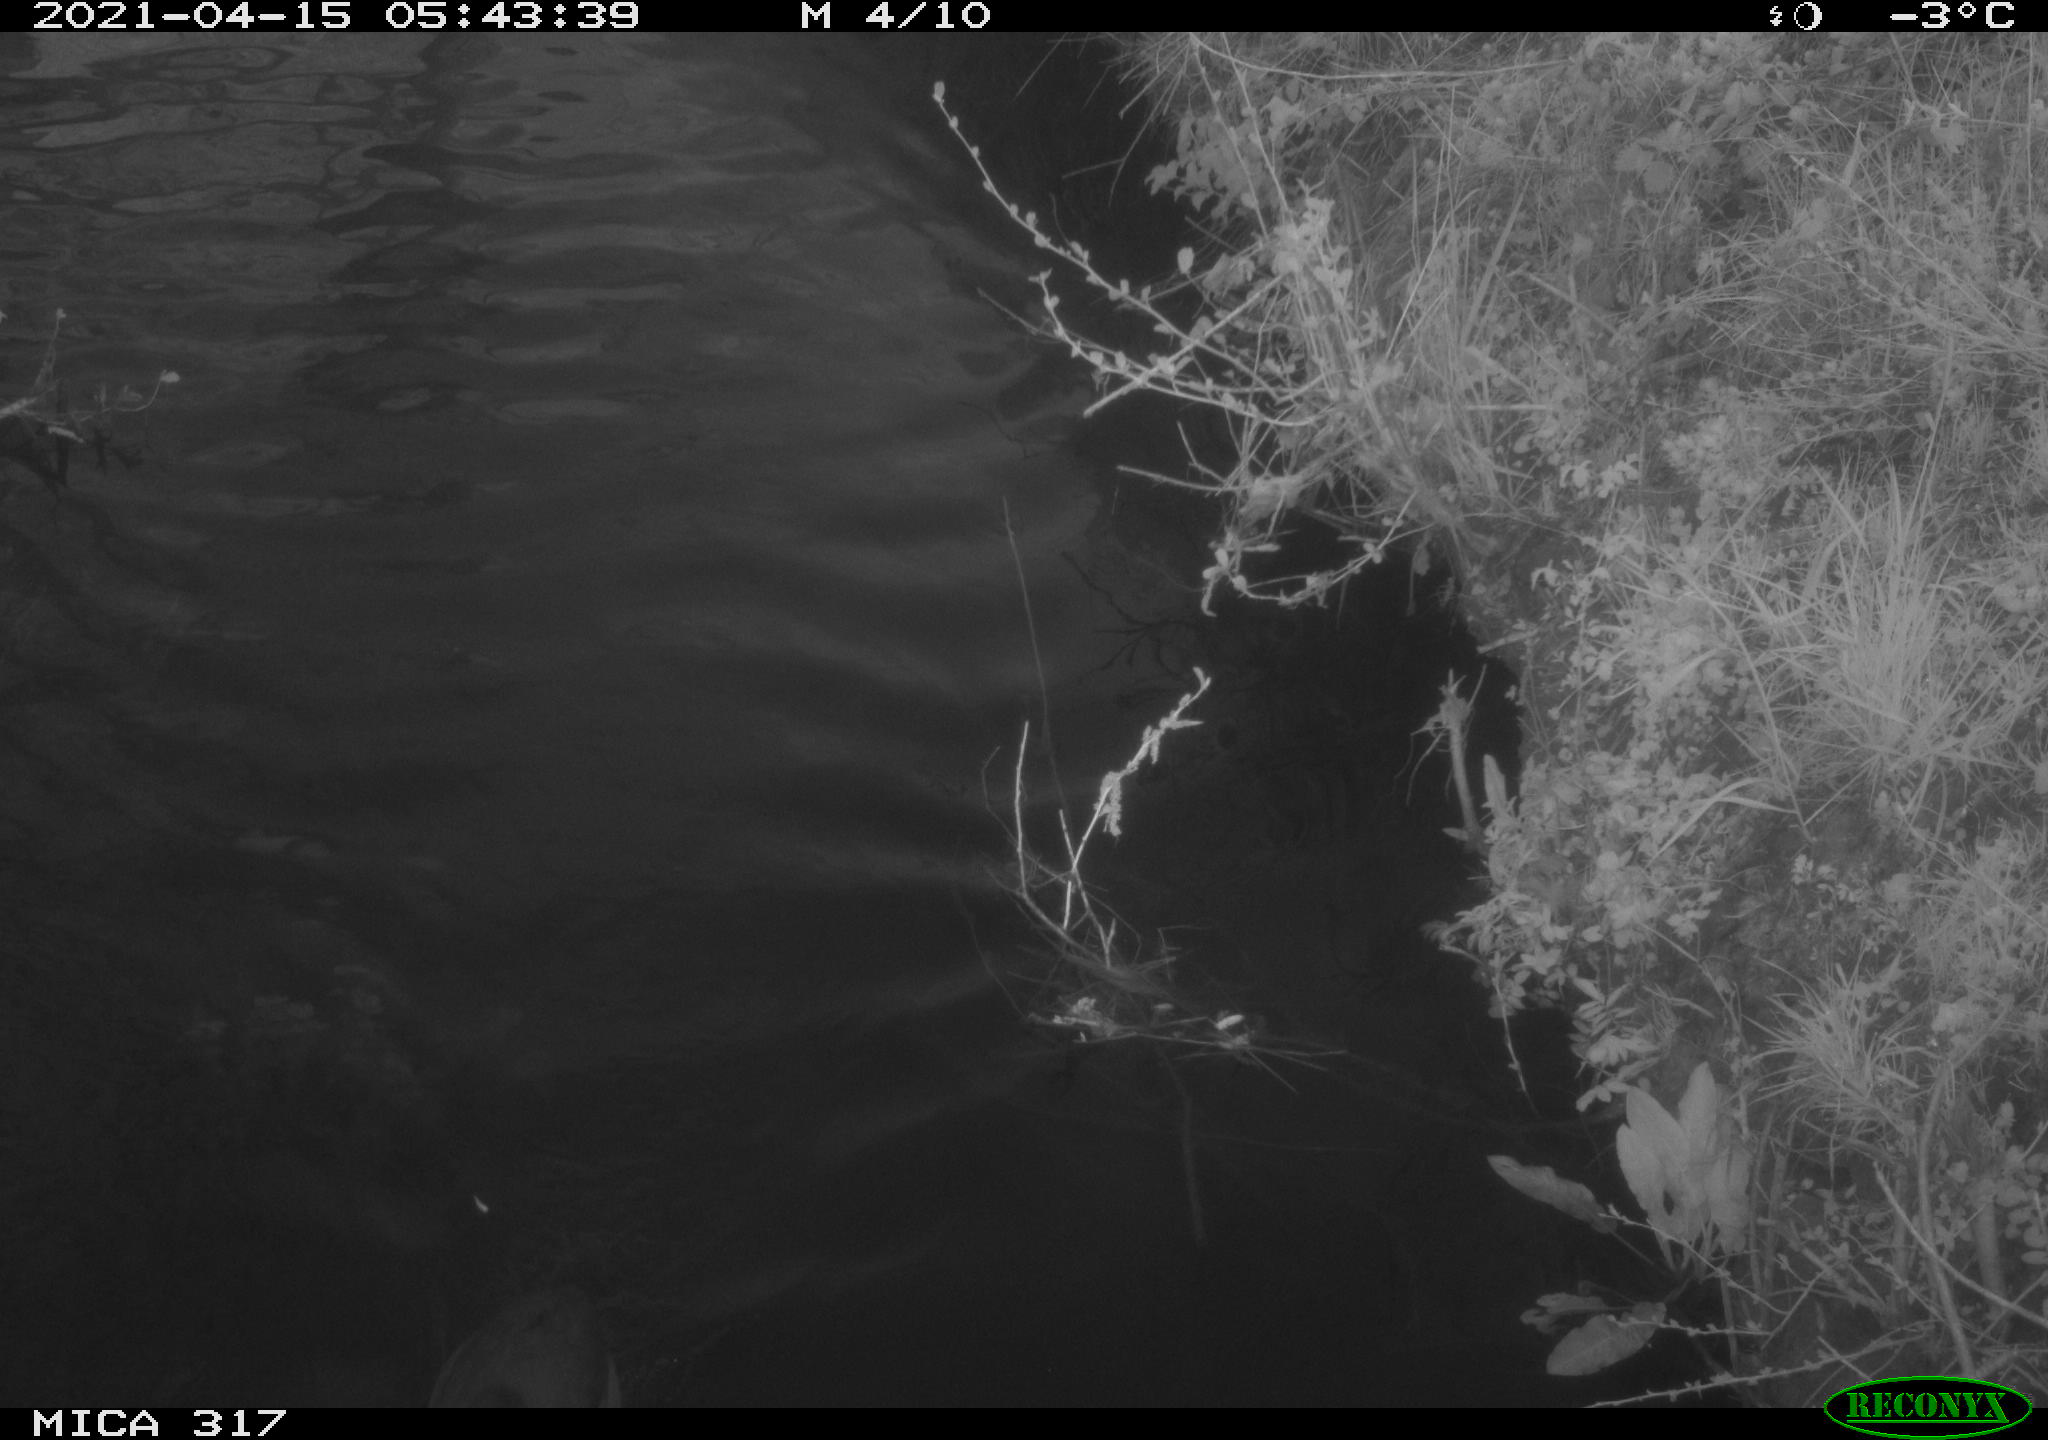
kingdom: Animalia
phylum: Chordata
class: Aves
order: Gruiformes
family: Rallidae
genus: Fulica
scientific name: Fulica atra
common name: Eurasian coot
